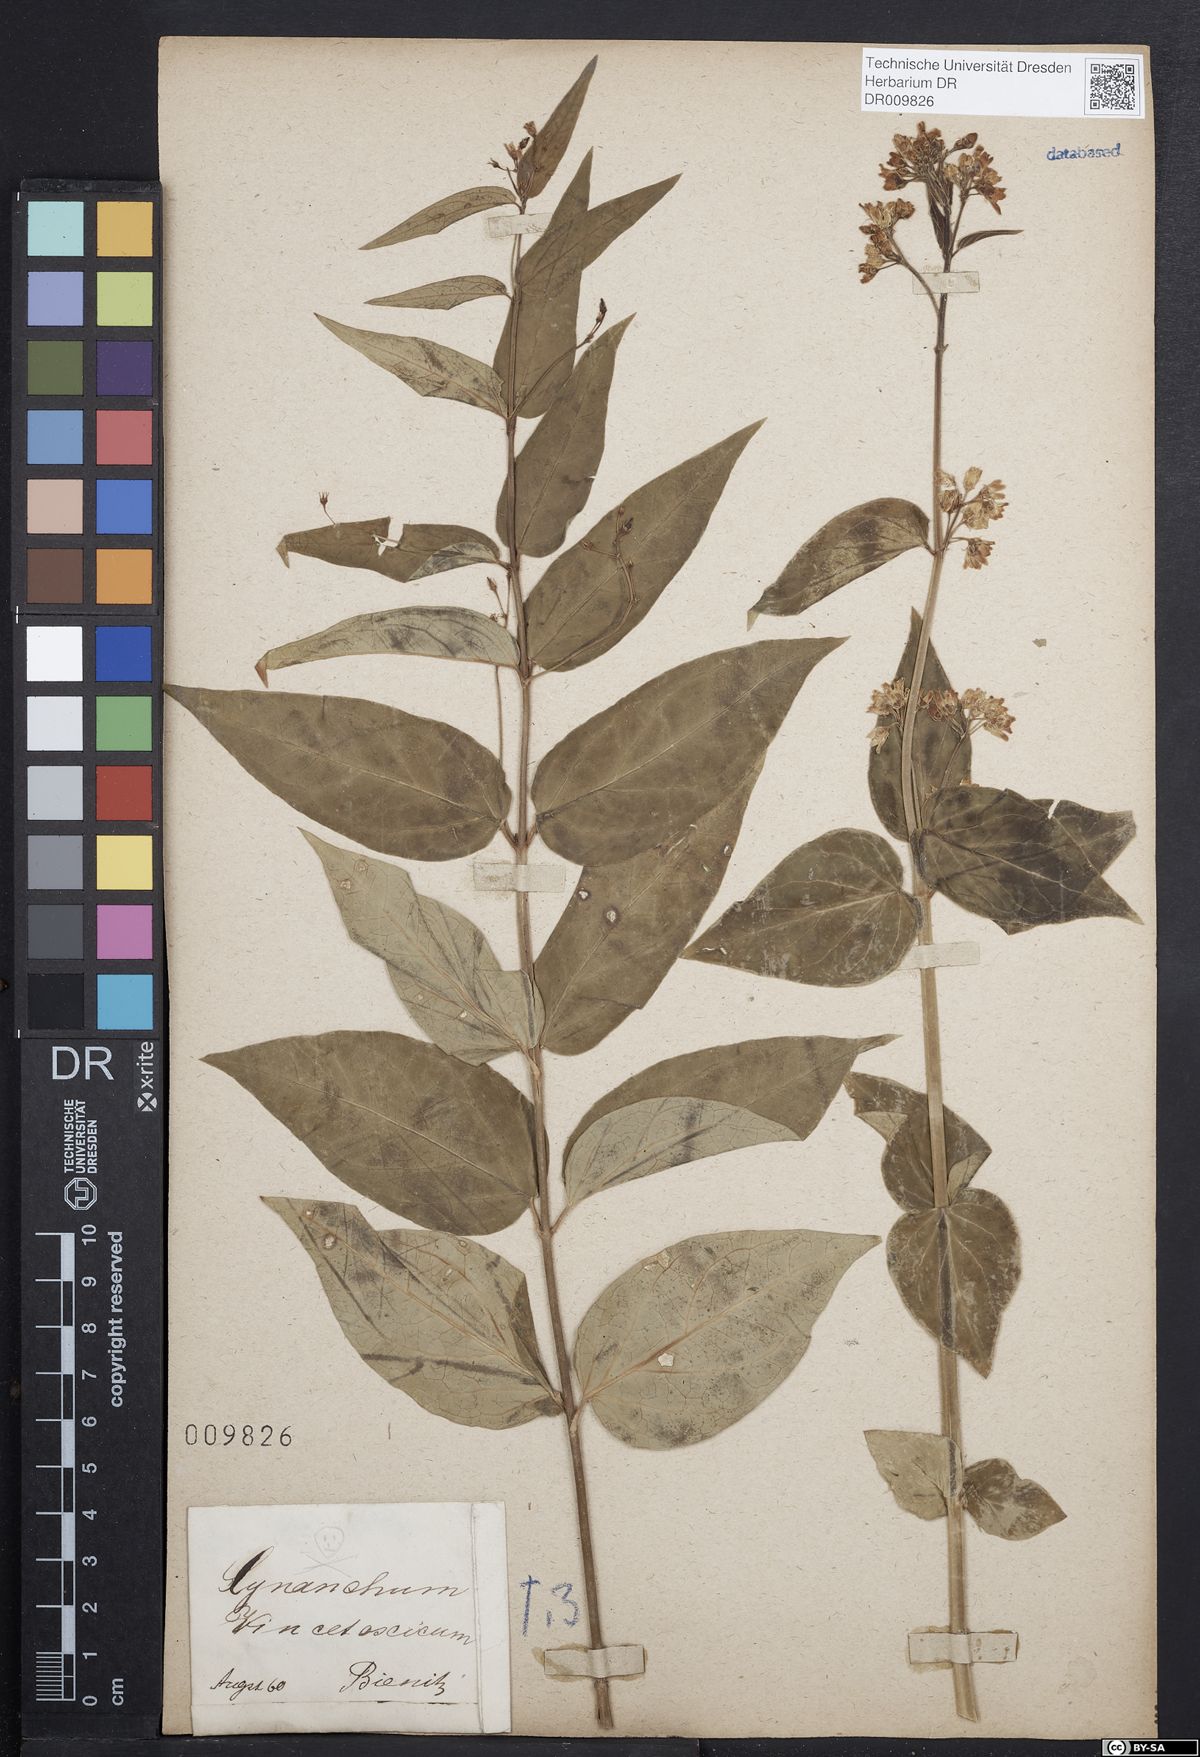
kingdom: Plantae
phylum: Tracheophyta
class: Magnoliopsida
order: Gentianales
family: Apocynaceae
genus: Vincetoxicum
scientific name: Vincetoxicum hirundinaria
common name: White swallowwort
